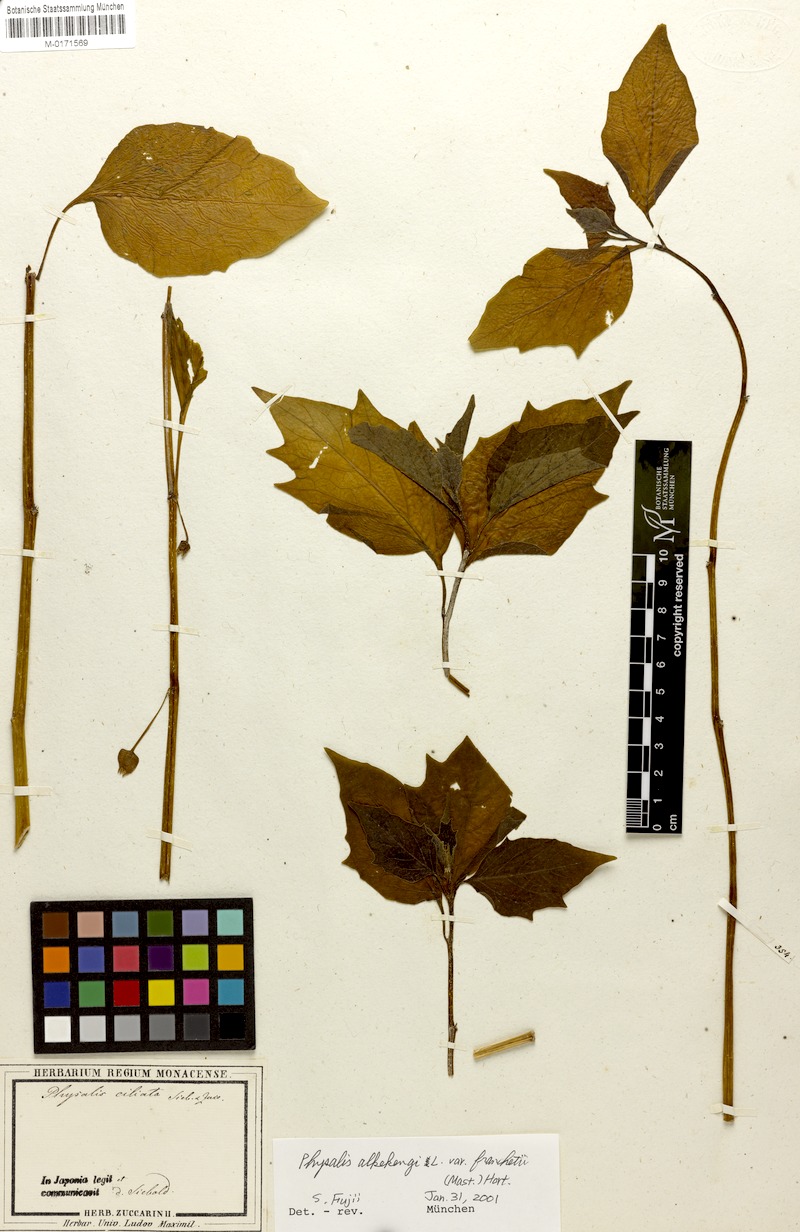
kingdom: Plantae
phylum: Tracheophyta
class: Magnoliopsida
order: Solanales
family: Solanaceae
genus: Alkekengi
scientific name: Alkekengi officinarum
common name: Japanese-lantern
